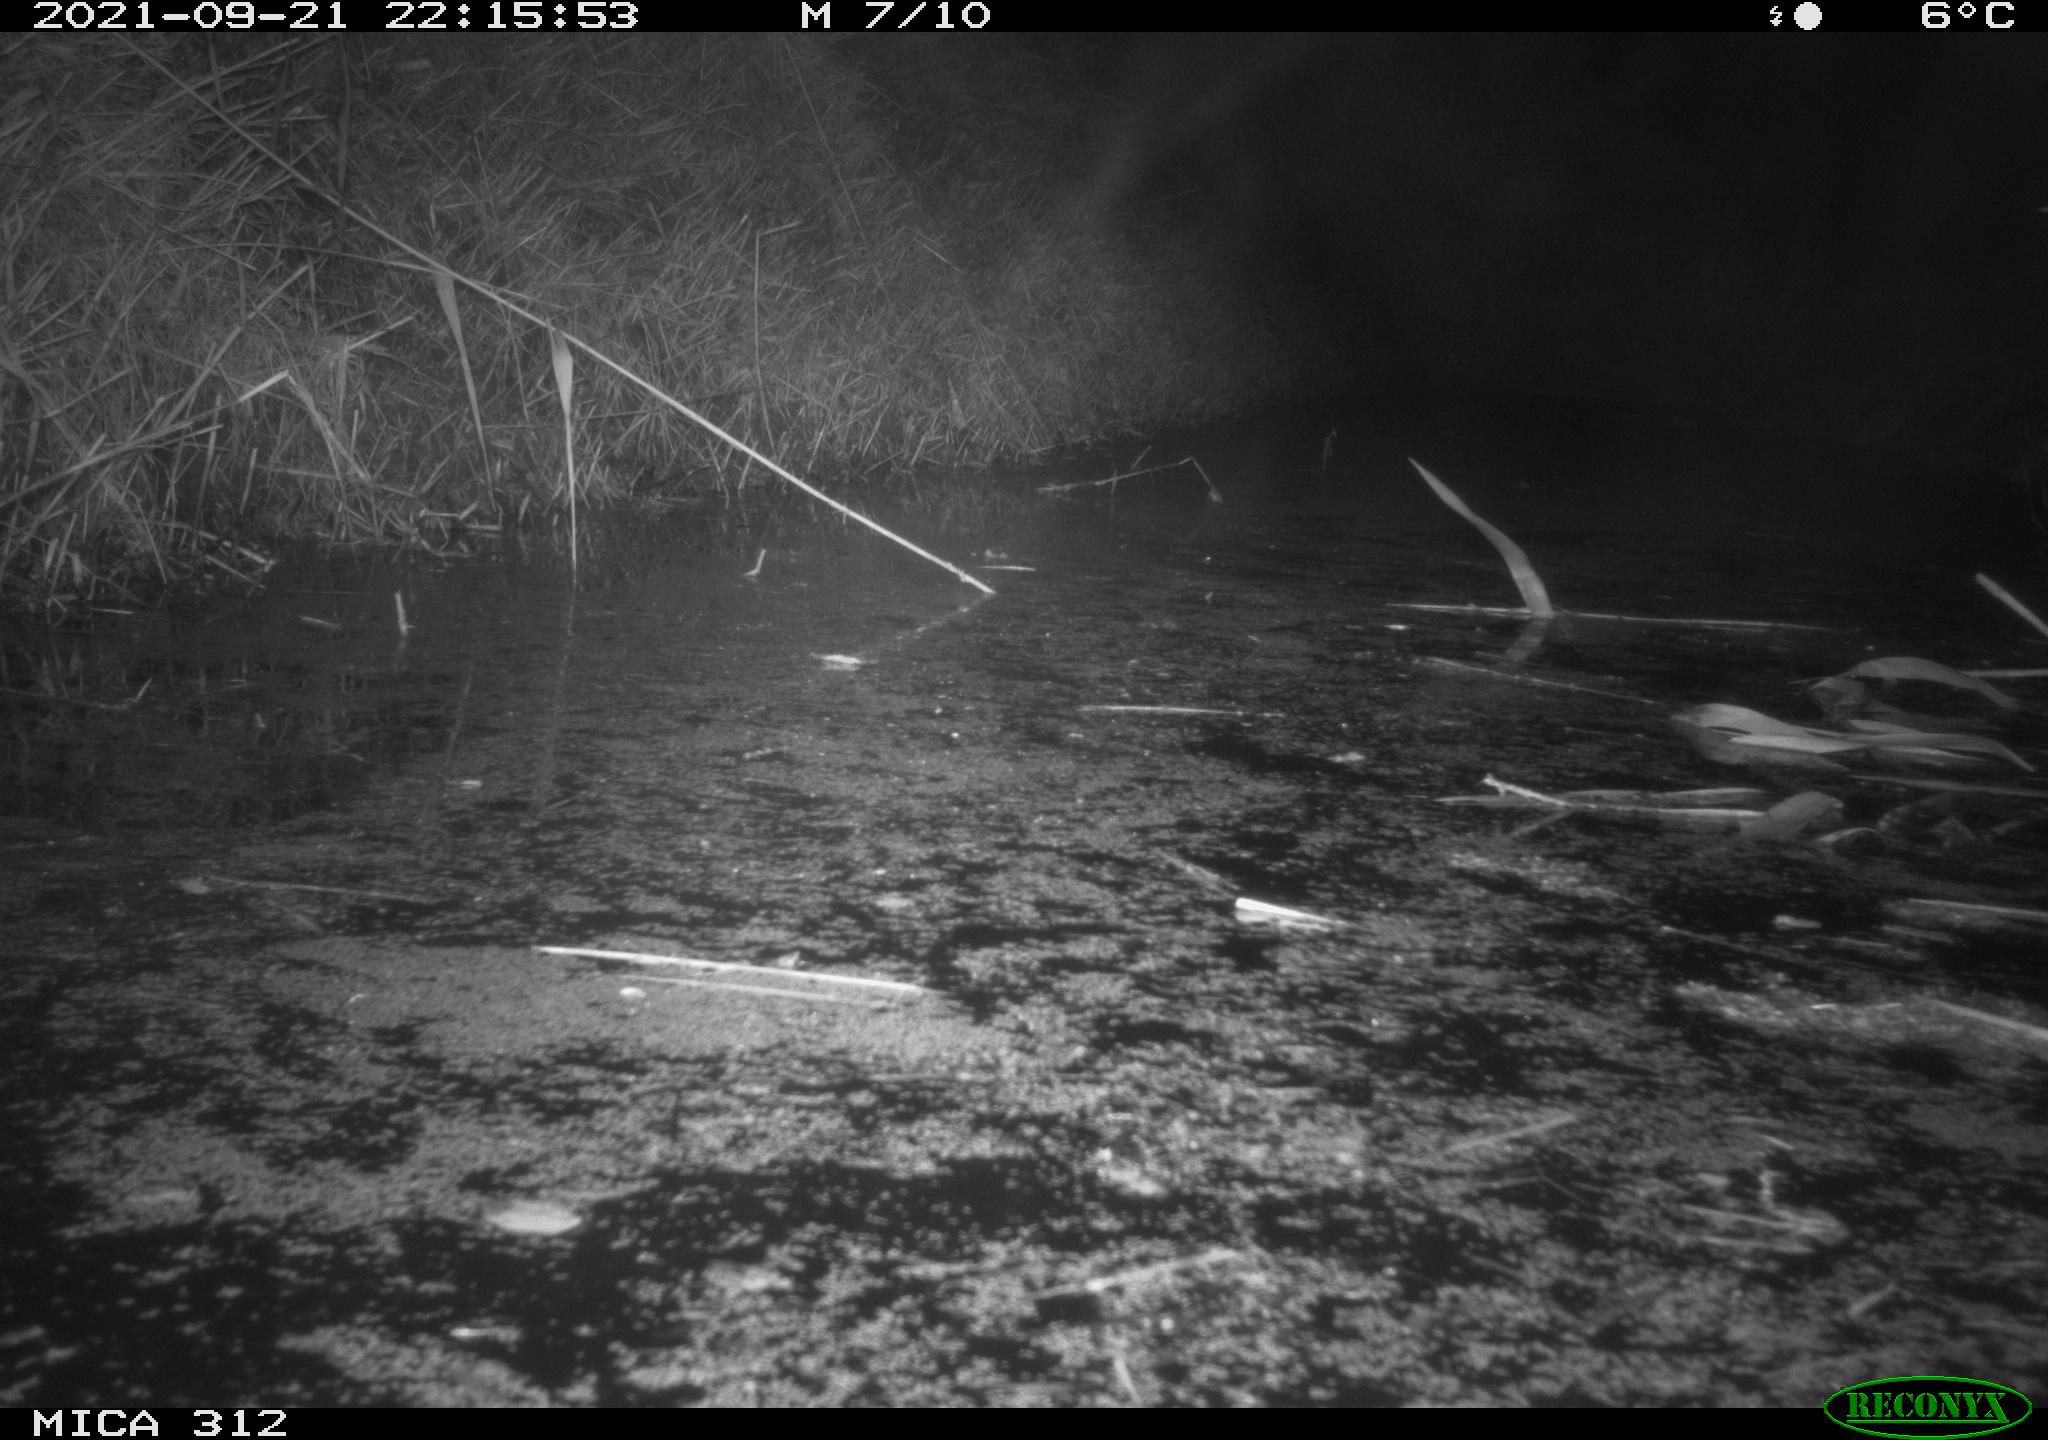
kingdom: Animalia
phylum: Chordata
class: Mammalia
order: Rodentia
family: Muridae
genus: Rattus
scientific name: Rattus norvegicus
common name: Brown rat
